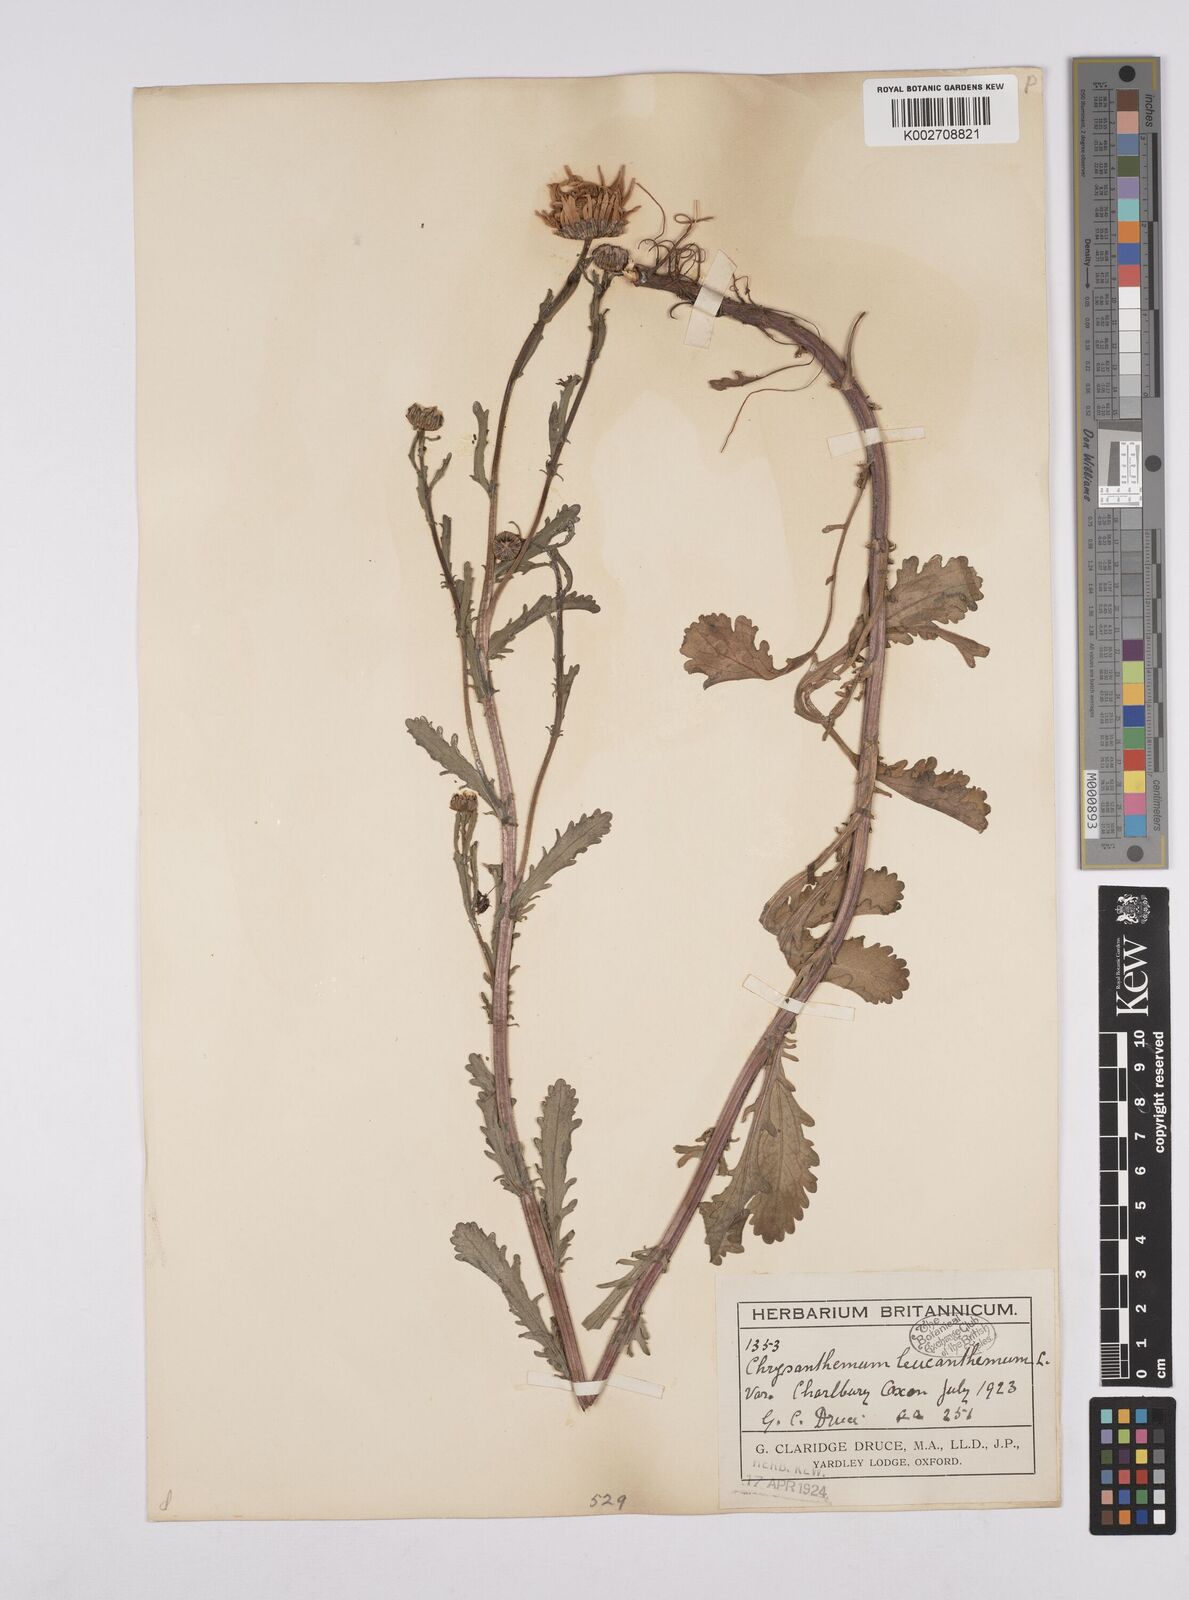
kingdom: Plantae
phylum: Tracheophyta
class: Magnoliopsida
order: Asterales
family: Asteraceae
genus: Leucanthemum
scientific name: Leucanthemum vulgare
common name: Oxeye daisy
